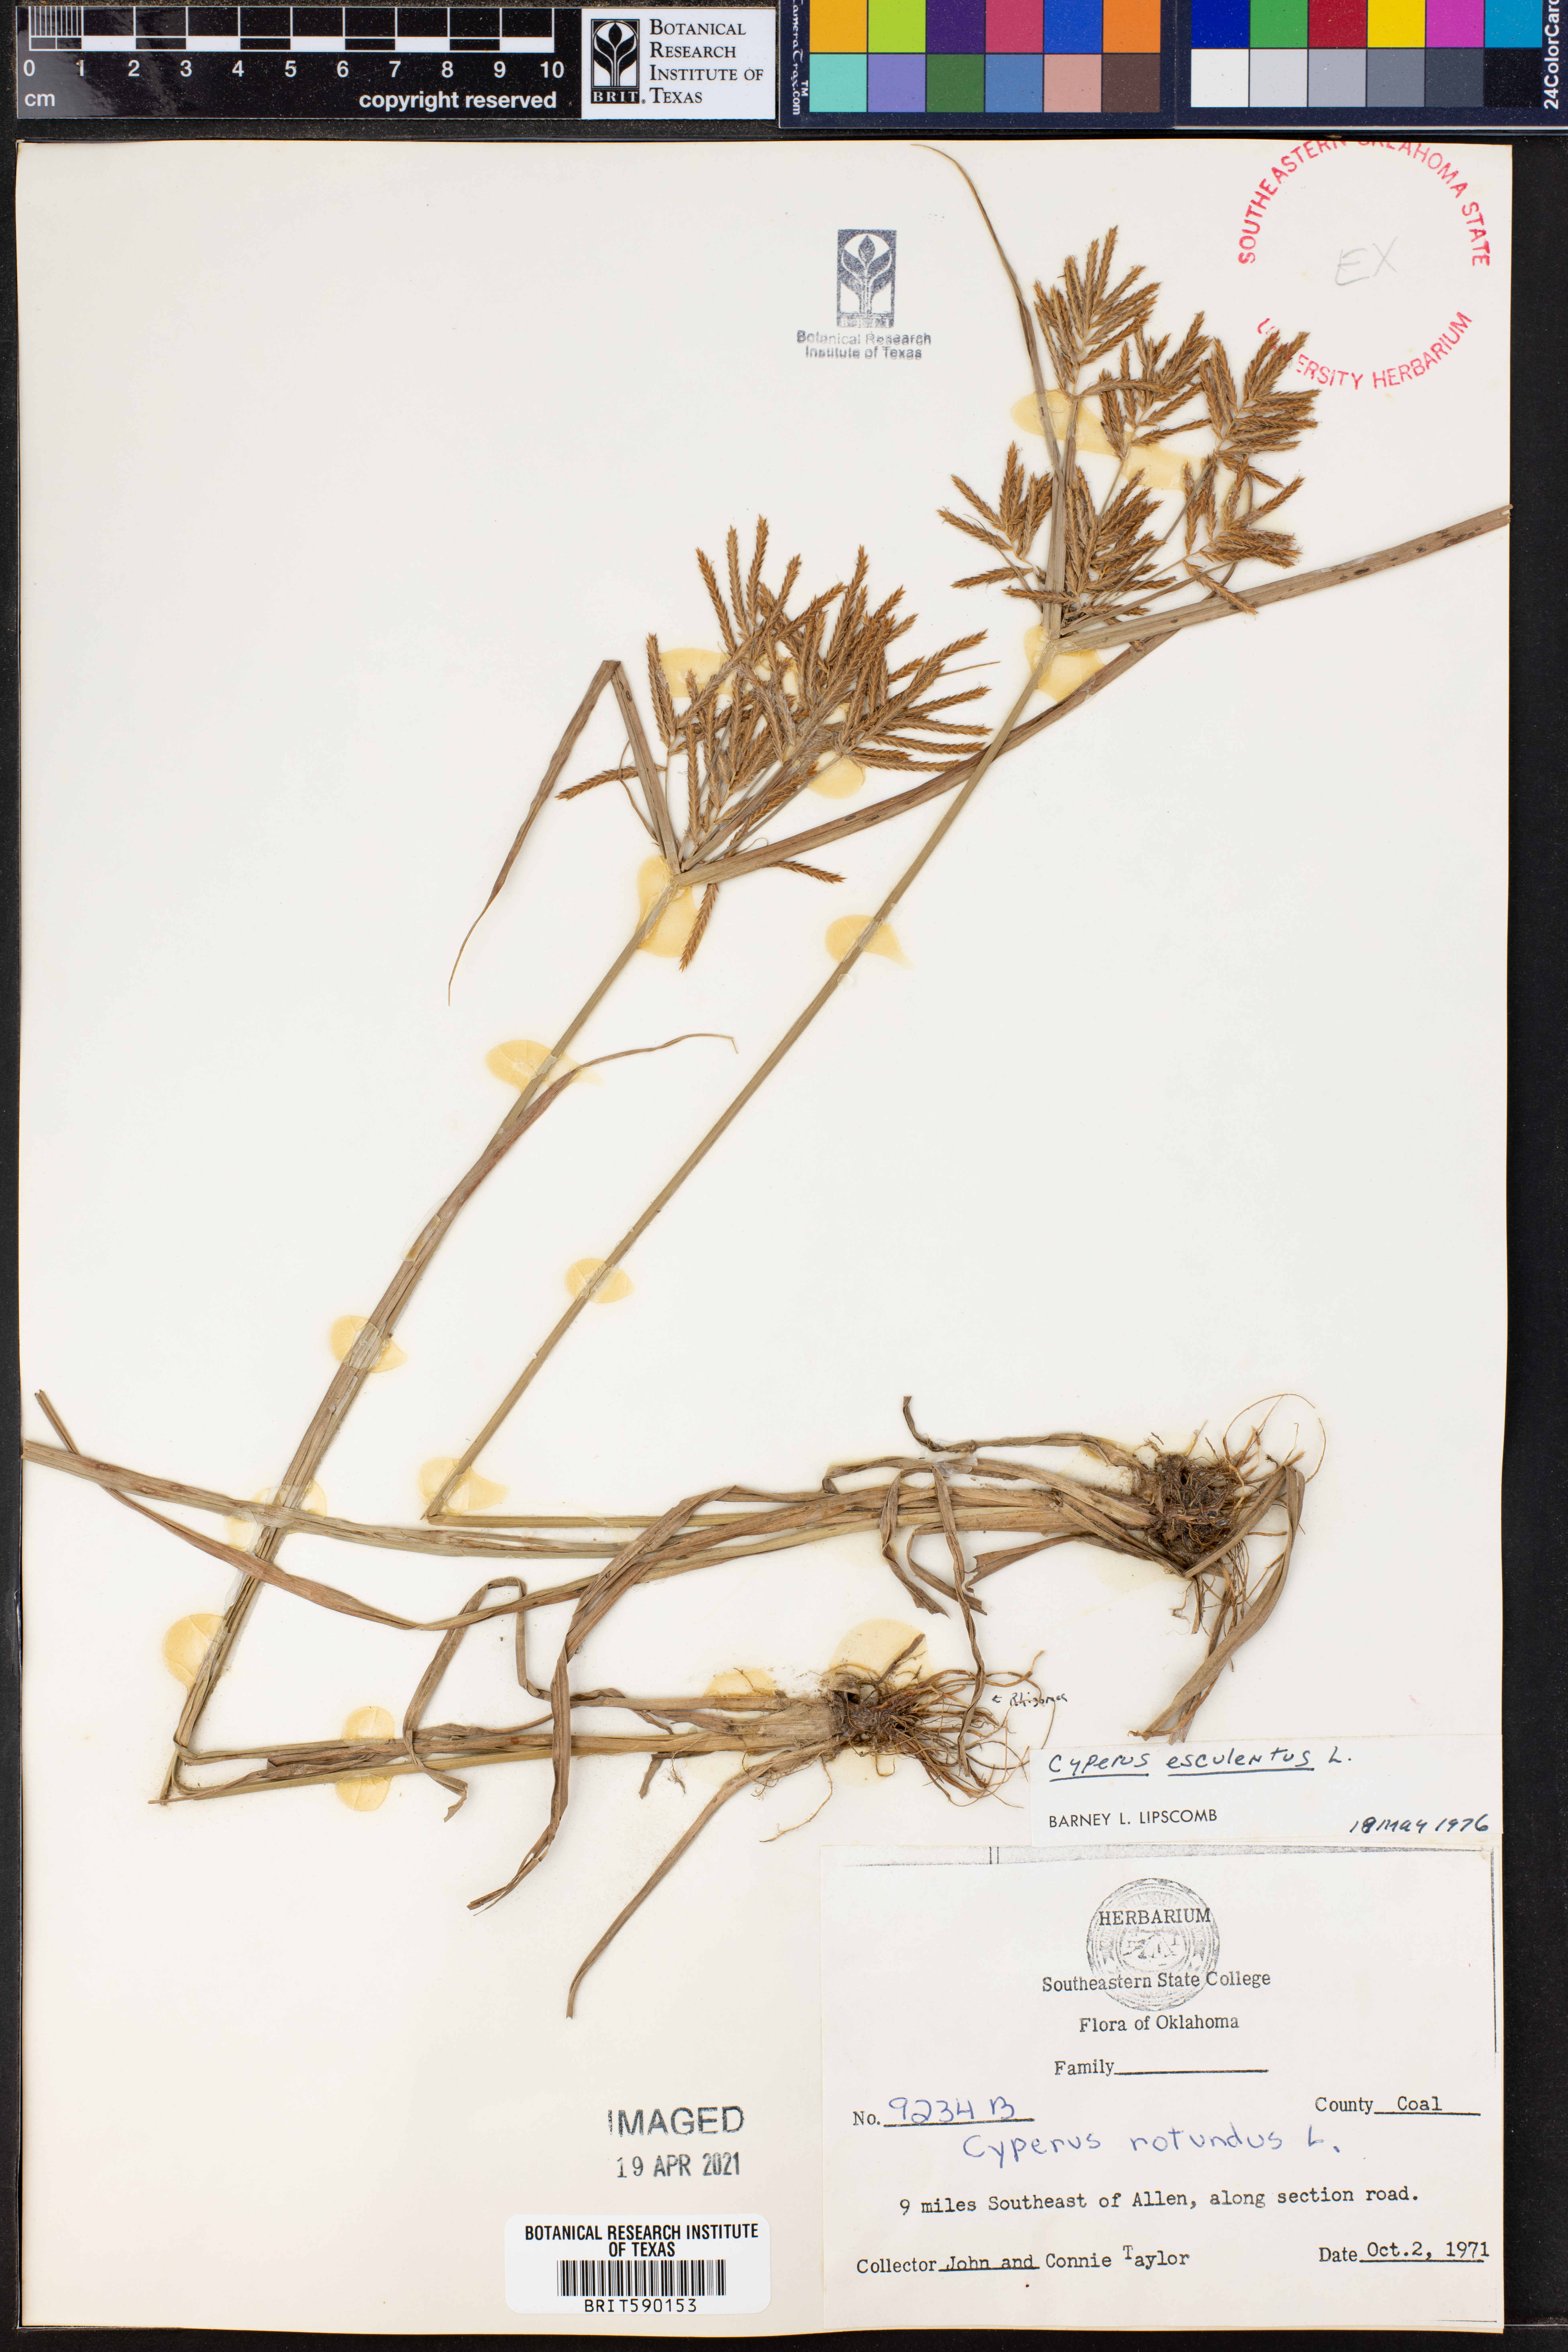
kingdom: Plantae
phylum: Tracheophyta
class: Liliopsida
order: Poales
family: Cyperaceae
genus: Cyperus
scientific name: Cyperus esculentus
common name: Yellow nutsedge
